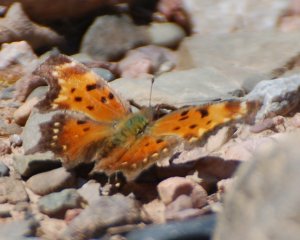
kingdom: Animalia
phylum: Arthropoda
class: Insecta
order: Lepidoptera
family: Nymphalidae
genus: Polygonia
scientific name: Polygonia progne
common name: Gray Comma
